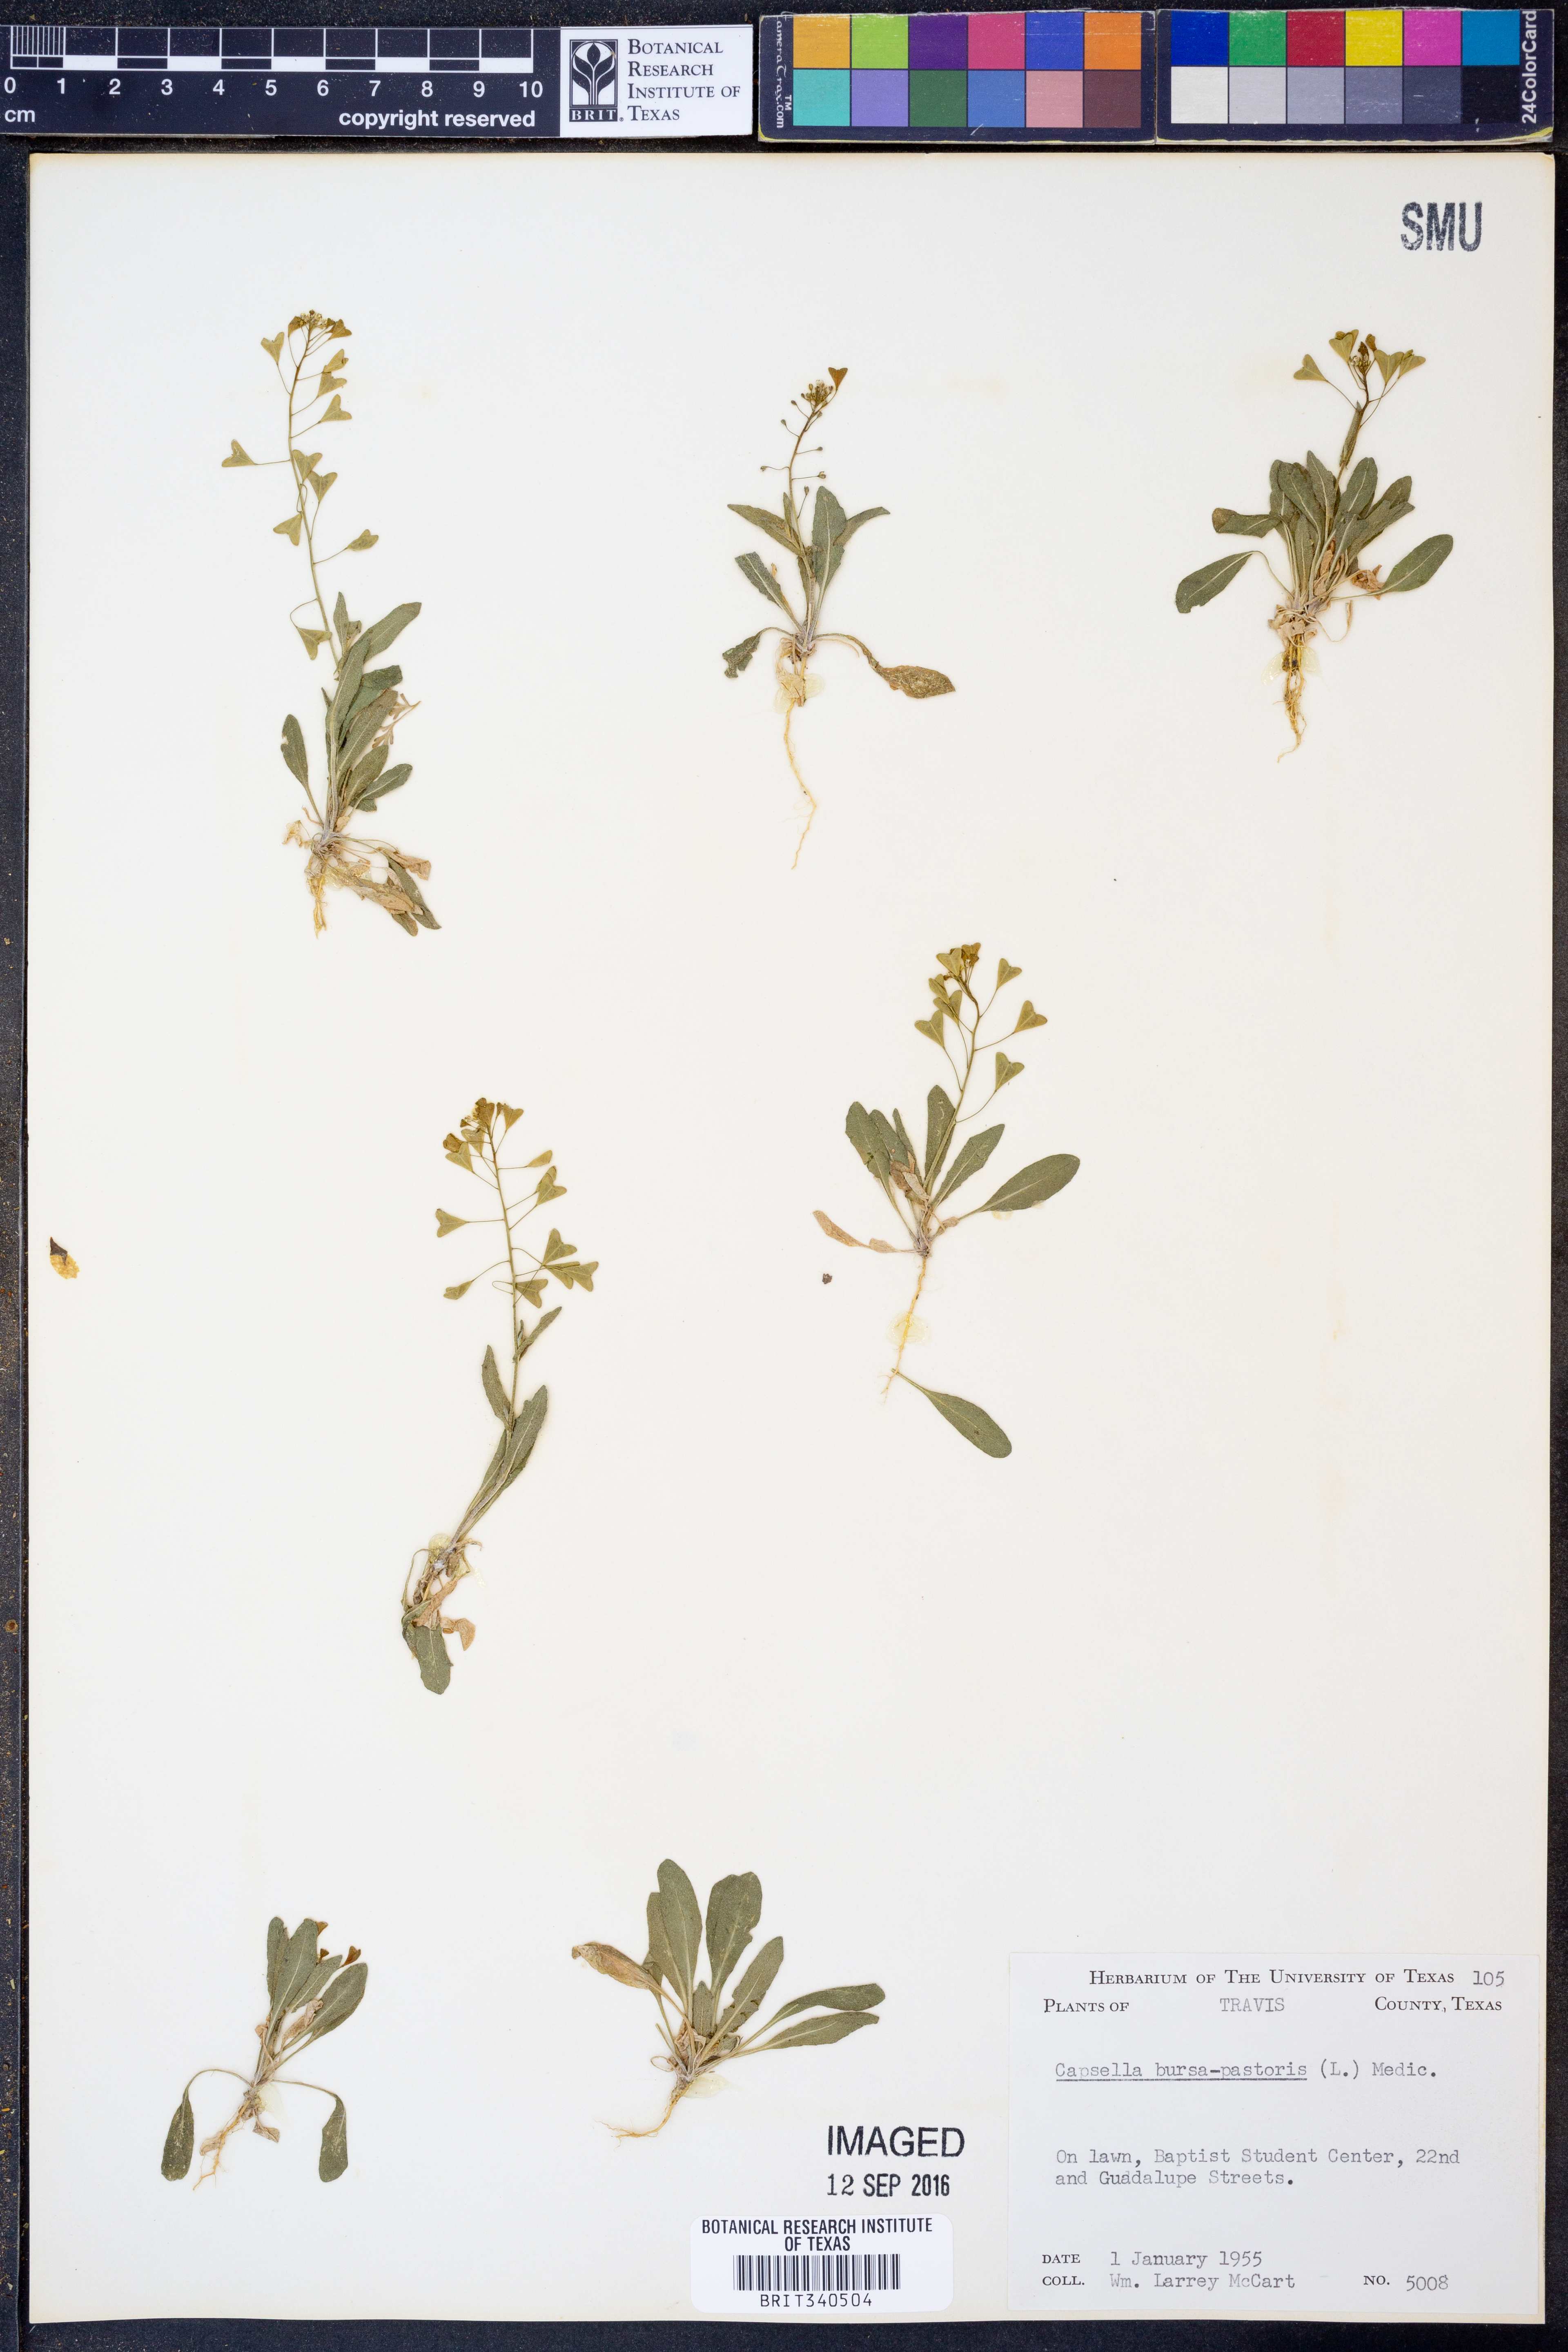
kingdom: Plantae
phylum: Tracheophyta
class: Magnoliopsida
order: Brassicales
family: Brassicaceae
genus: Capsella
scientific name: Capsella bursa-pastoris
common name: Shepherd's purse
